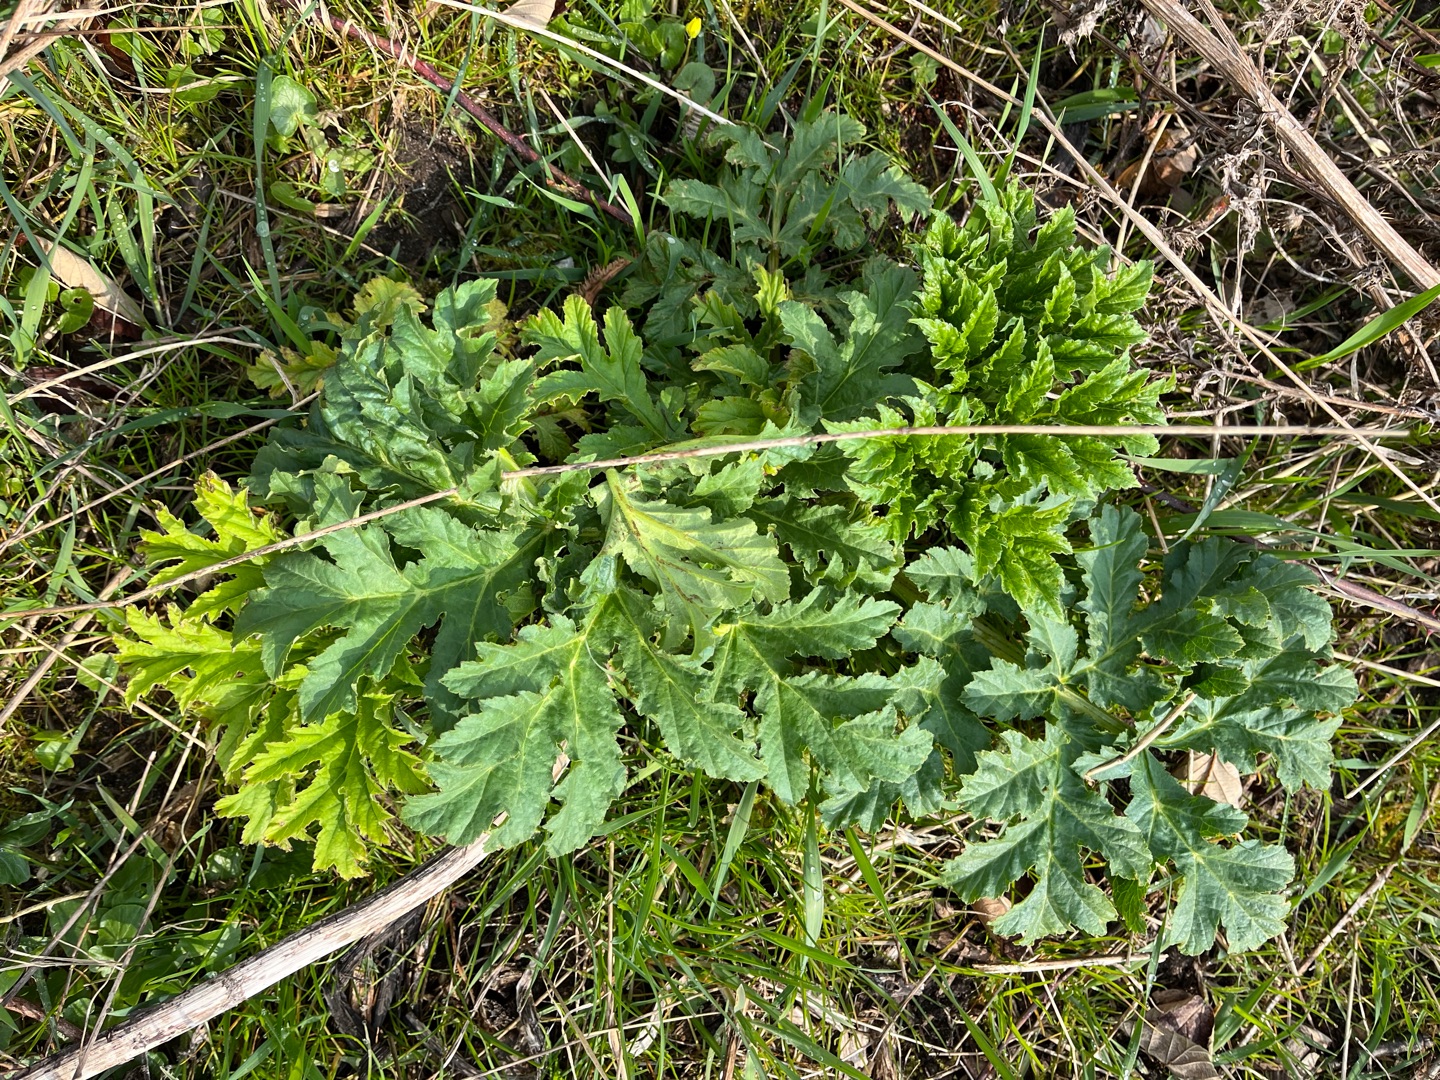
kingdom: Plantae
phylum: Tracheophyta
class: Magnoliopsida
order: Apiales
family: Apiaceae
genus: Heracleum
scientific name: Heracleum mantegazzianum
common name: Kæmpe-bjørneklo
